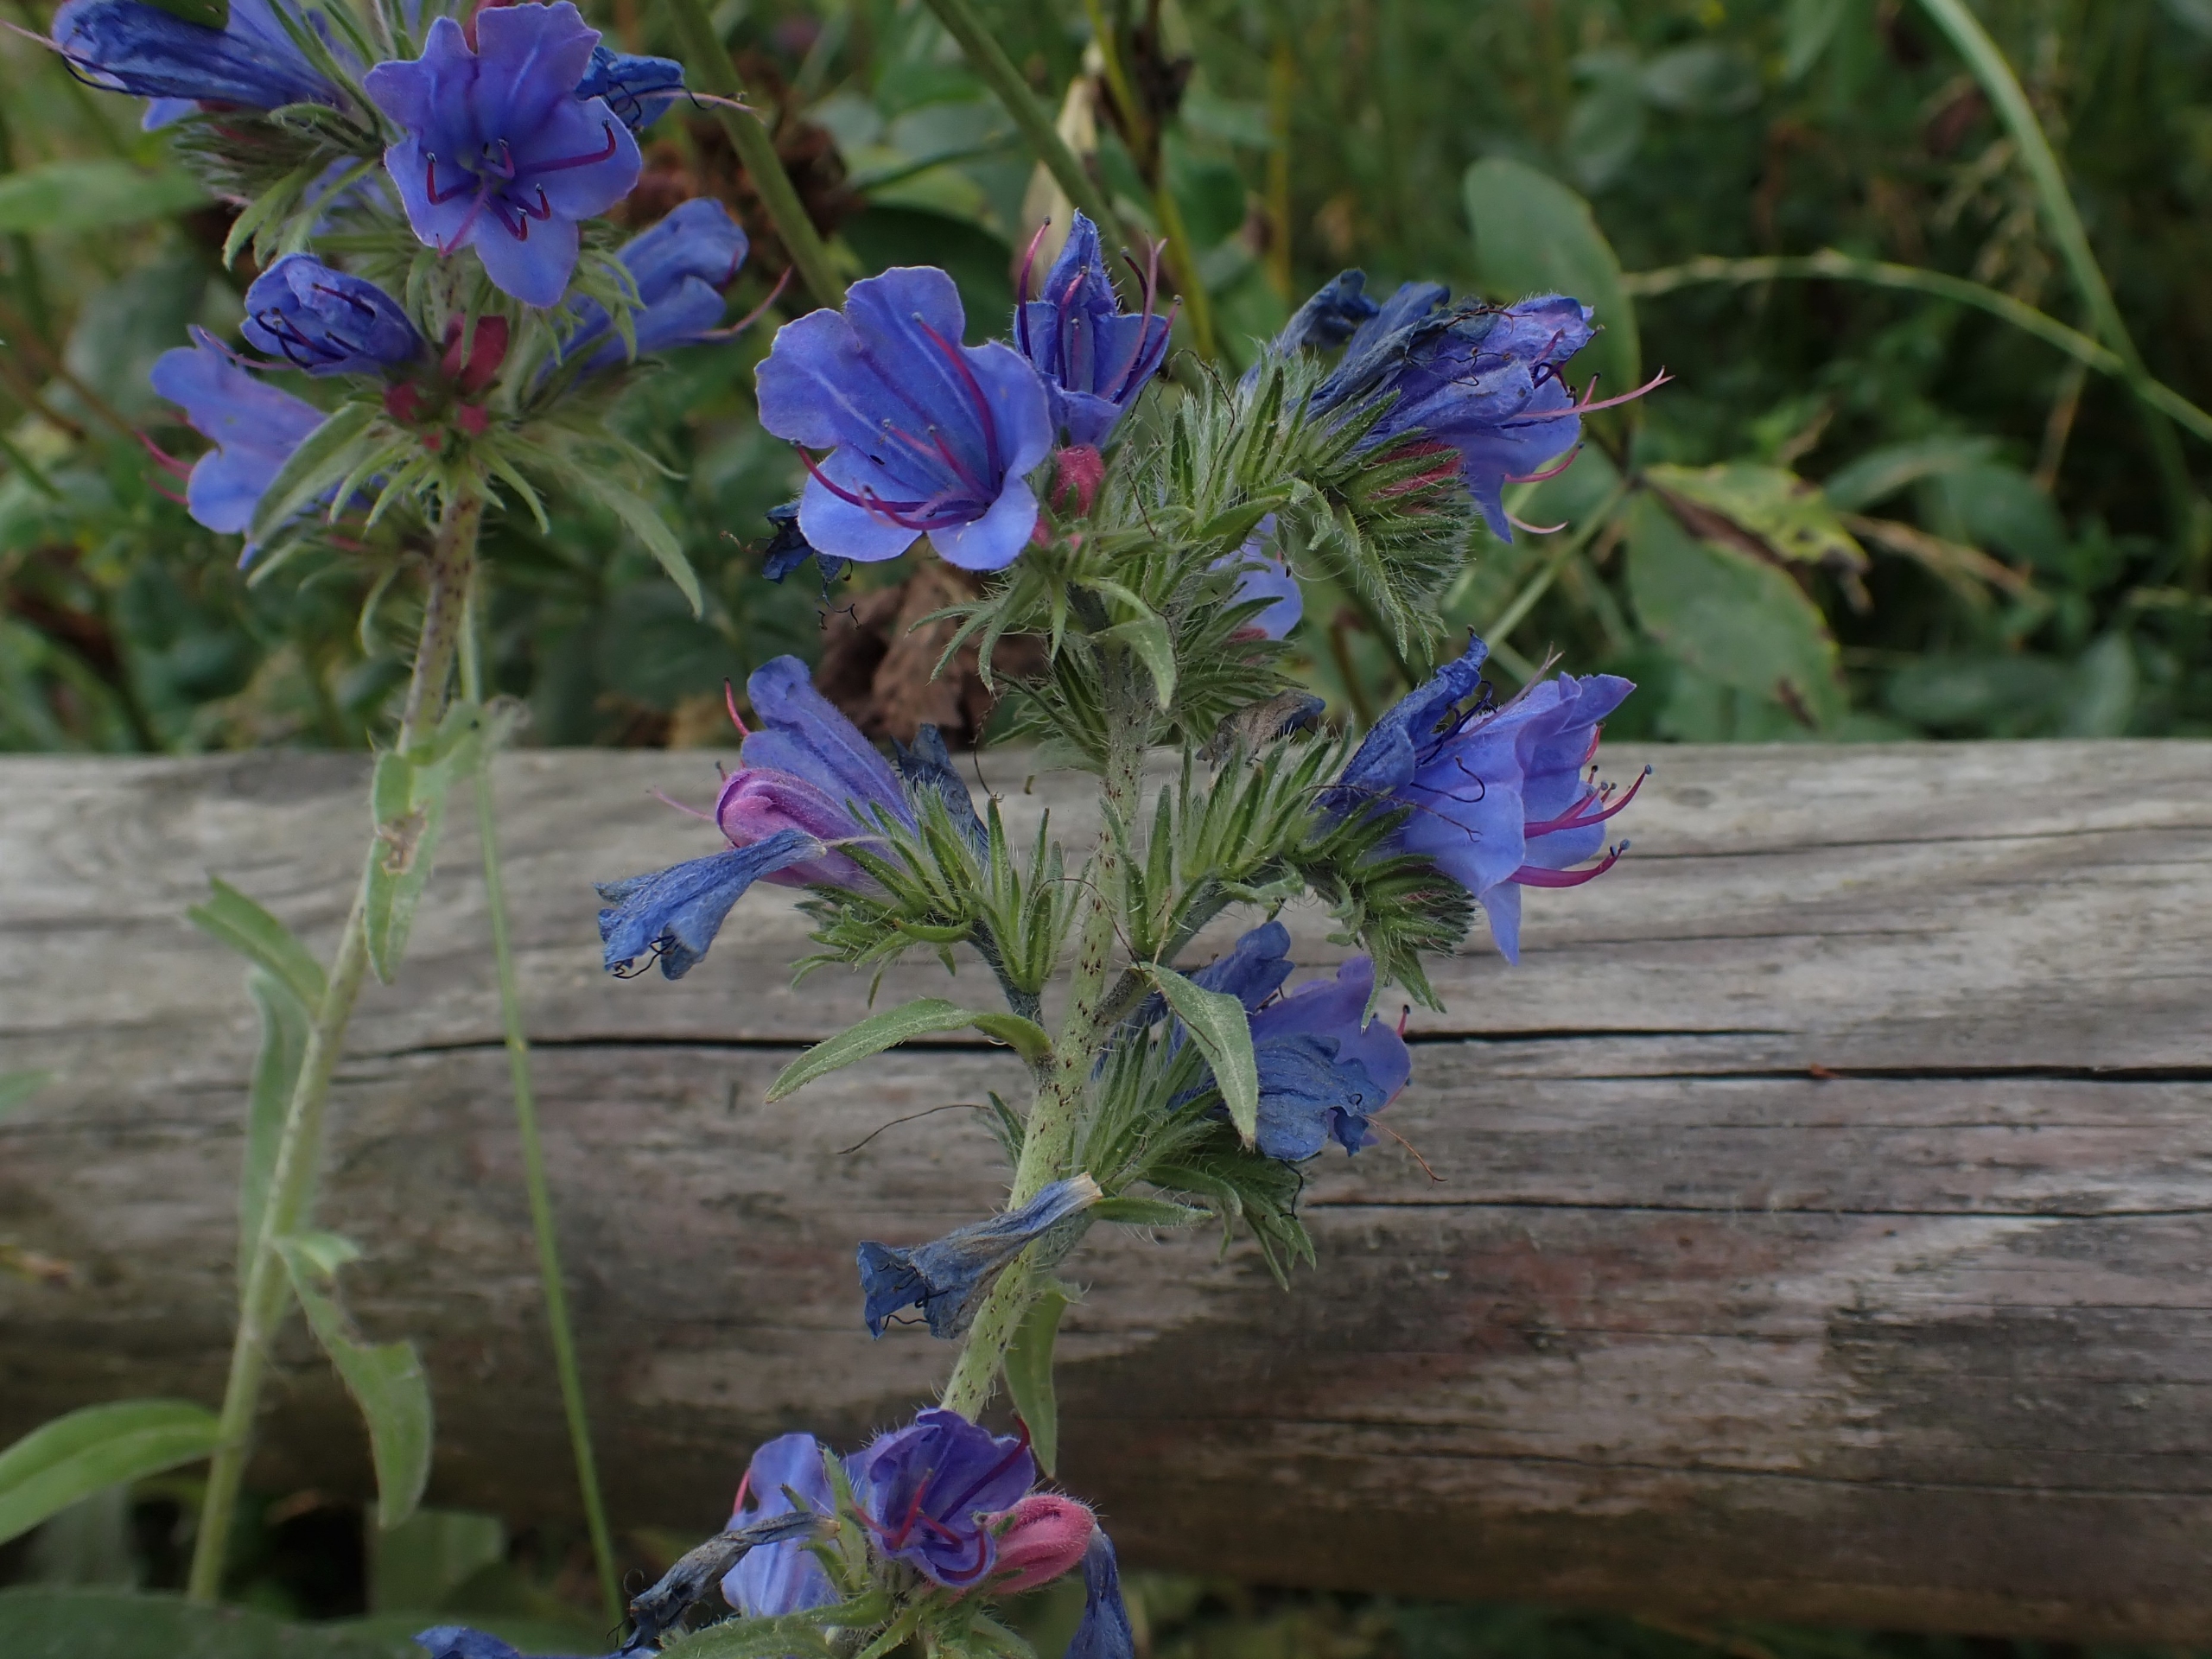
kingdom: Plantae
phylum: Tracheophyta
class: Magnoliopsida
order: Boraginales
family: Boraginaceae
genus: Echium
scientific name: Echium vulgare
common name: Slangehoved
